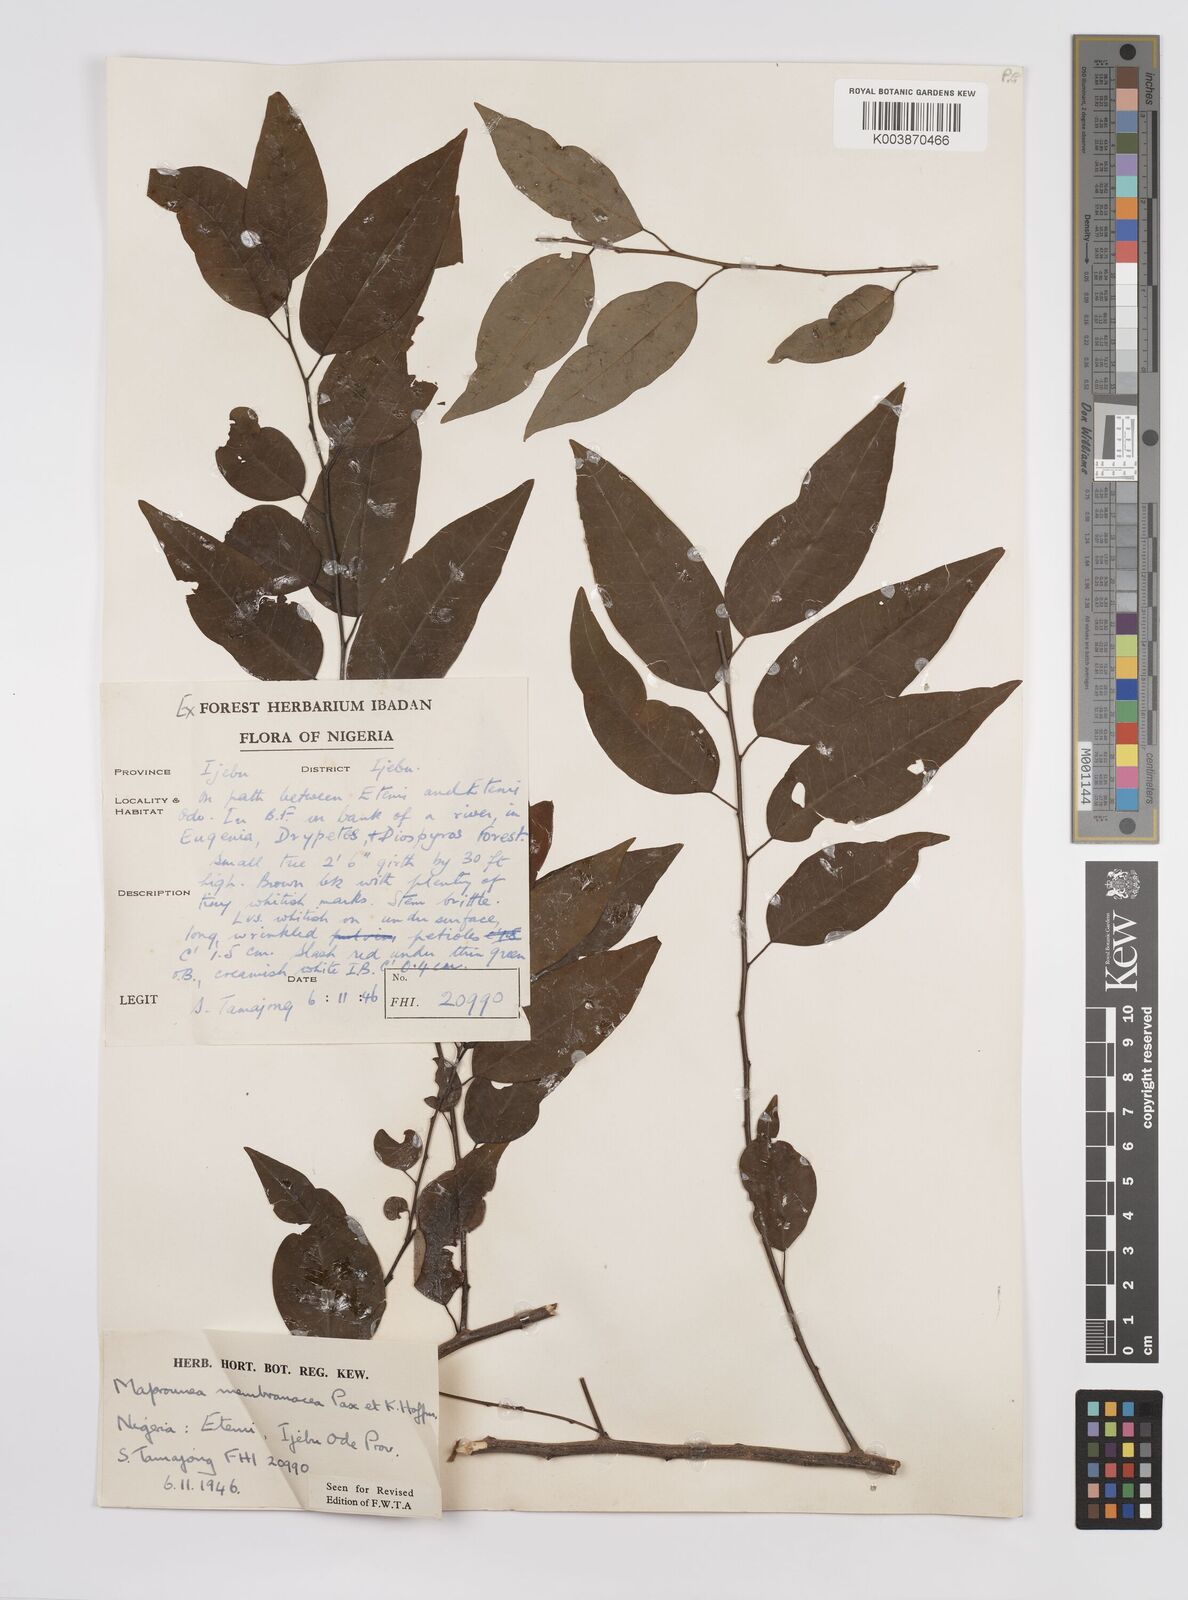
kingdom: Plantae
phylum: Tracheophyta
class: Magnoliopsida
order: Malpighiales
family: Euphorbiaceae
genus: Maprounea
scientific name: Maprounea membranacea
